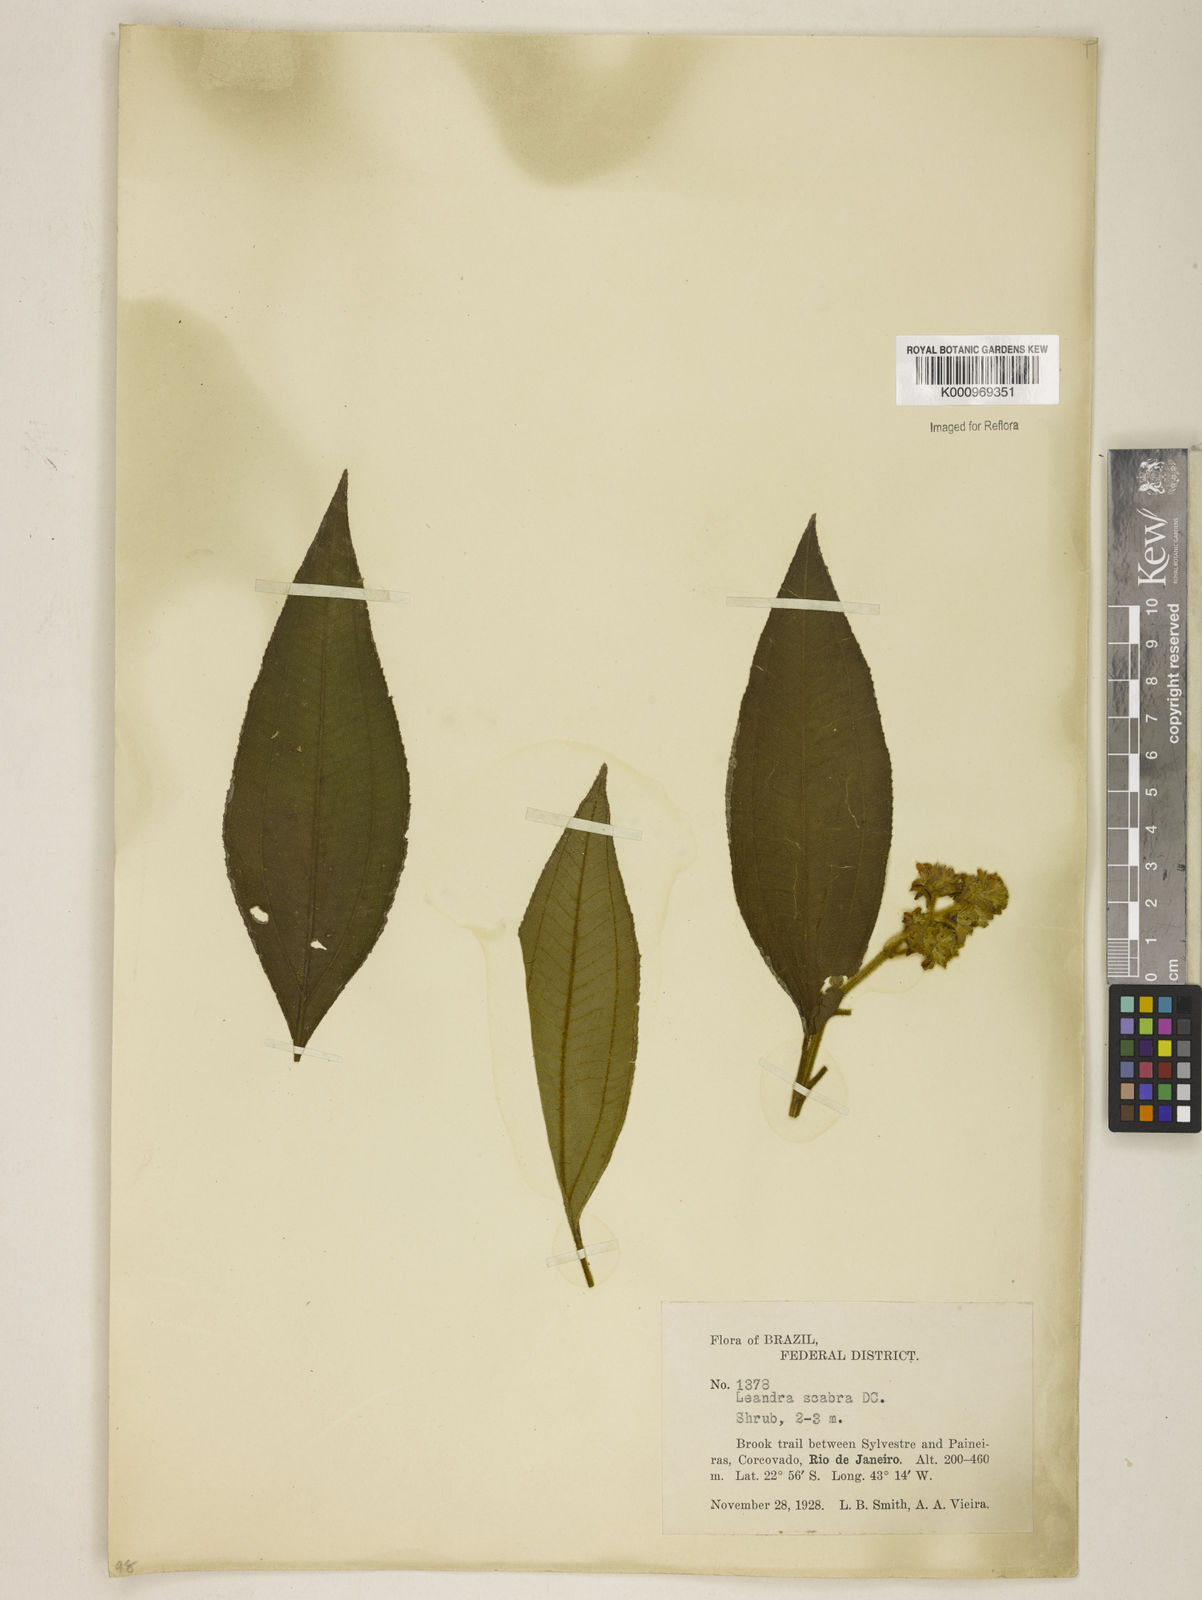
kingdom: Plantae
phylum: Tracheophyta
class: Magnoliopsida
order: Myrtales
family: Melastomataceae
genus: Miconia
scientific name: Miconia melastomoides
